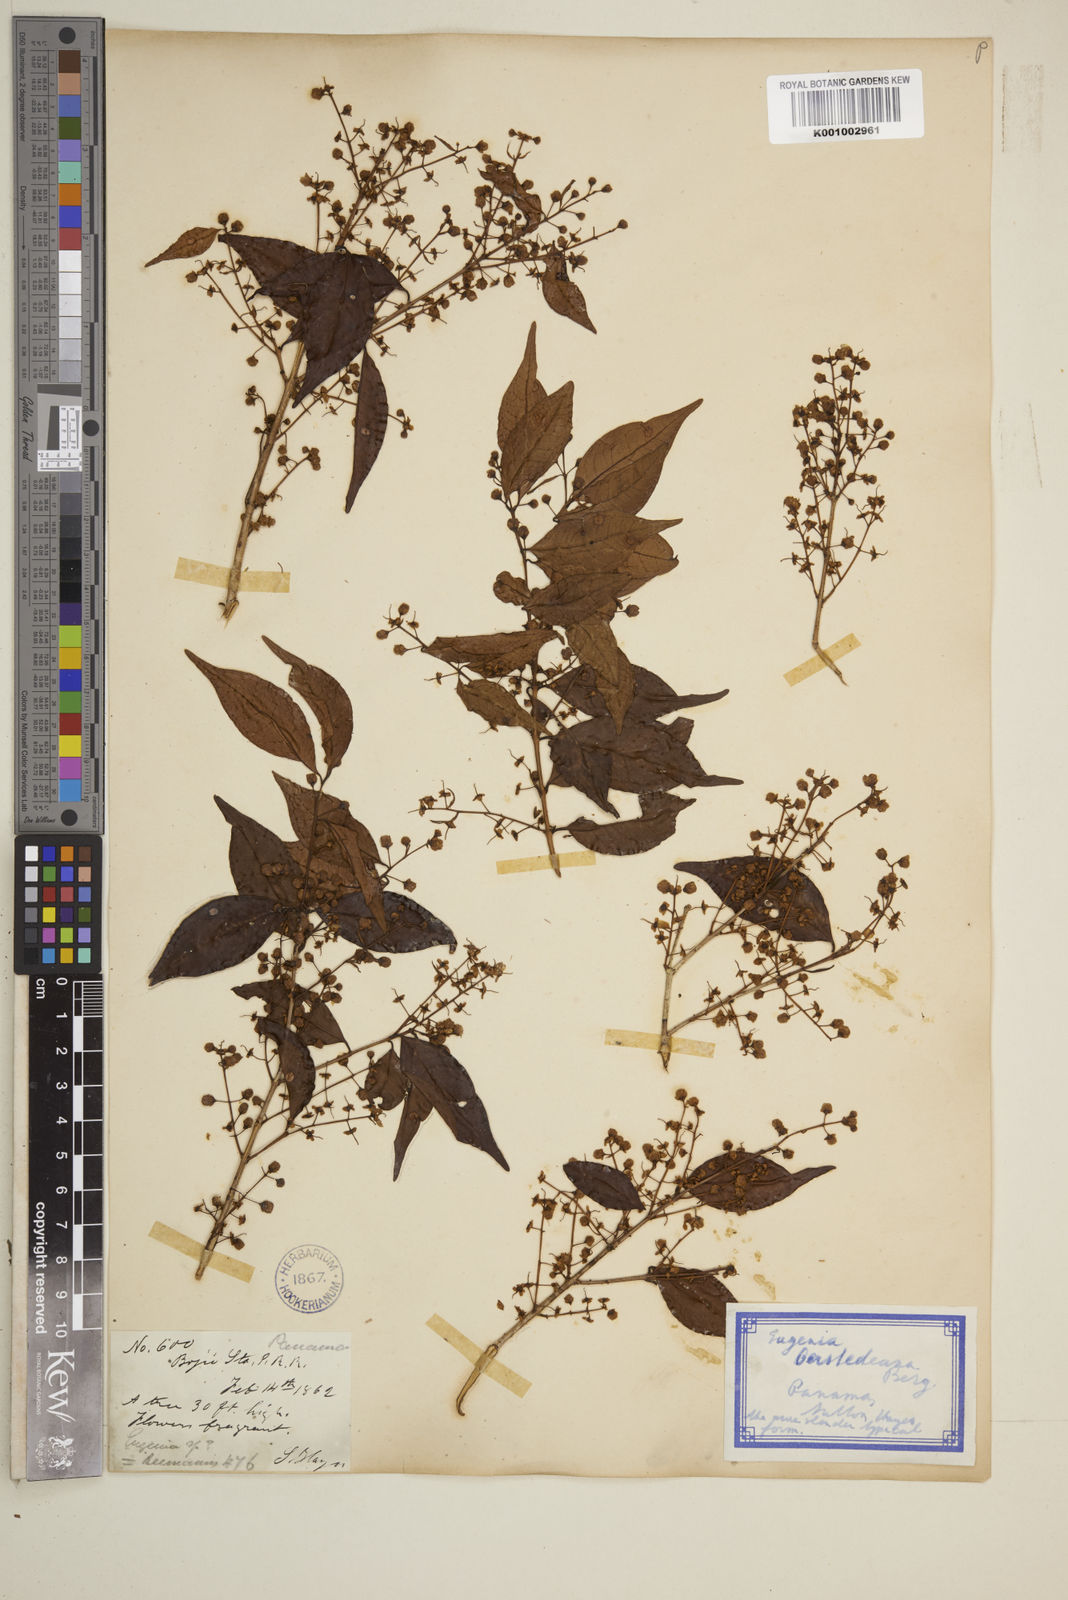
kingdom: Plantae
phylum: Tracheophyta
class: Magnoliopsida
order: Myrtales
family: Myrtaceae
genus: Eugenia
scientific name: Eugenia oerstediana
